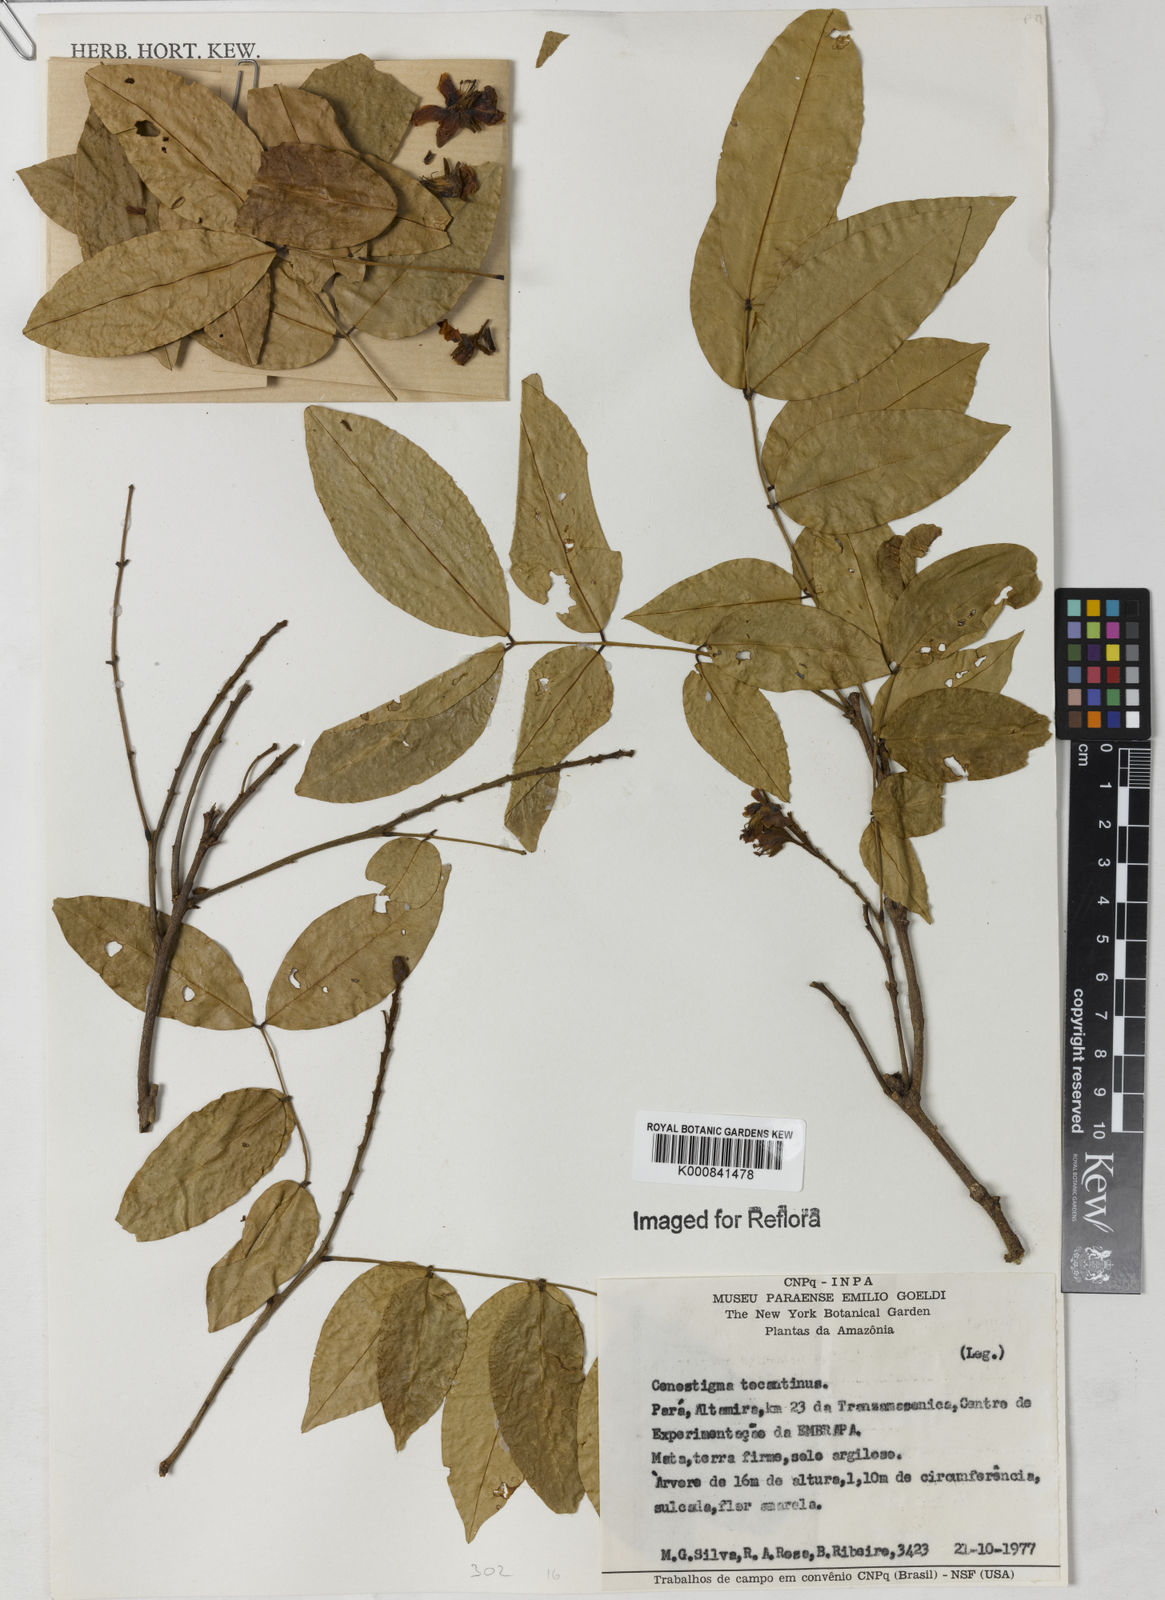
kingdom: Plantae
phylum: Tracheophyta
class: Magnoliopsida
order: Fabales
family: Fabaceae
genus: Cenostigma
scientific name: Cenostigma tocantinum
